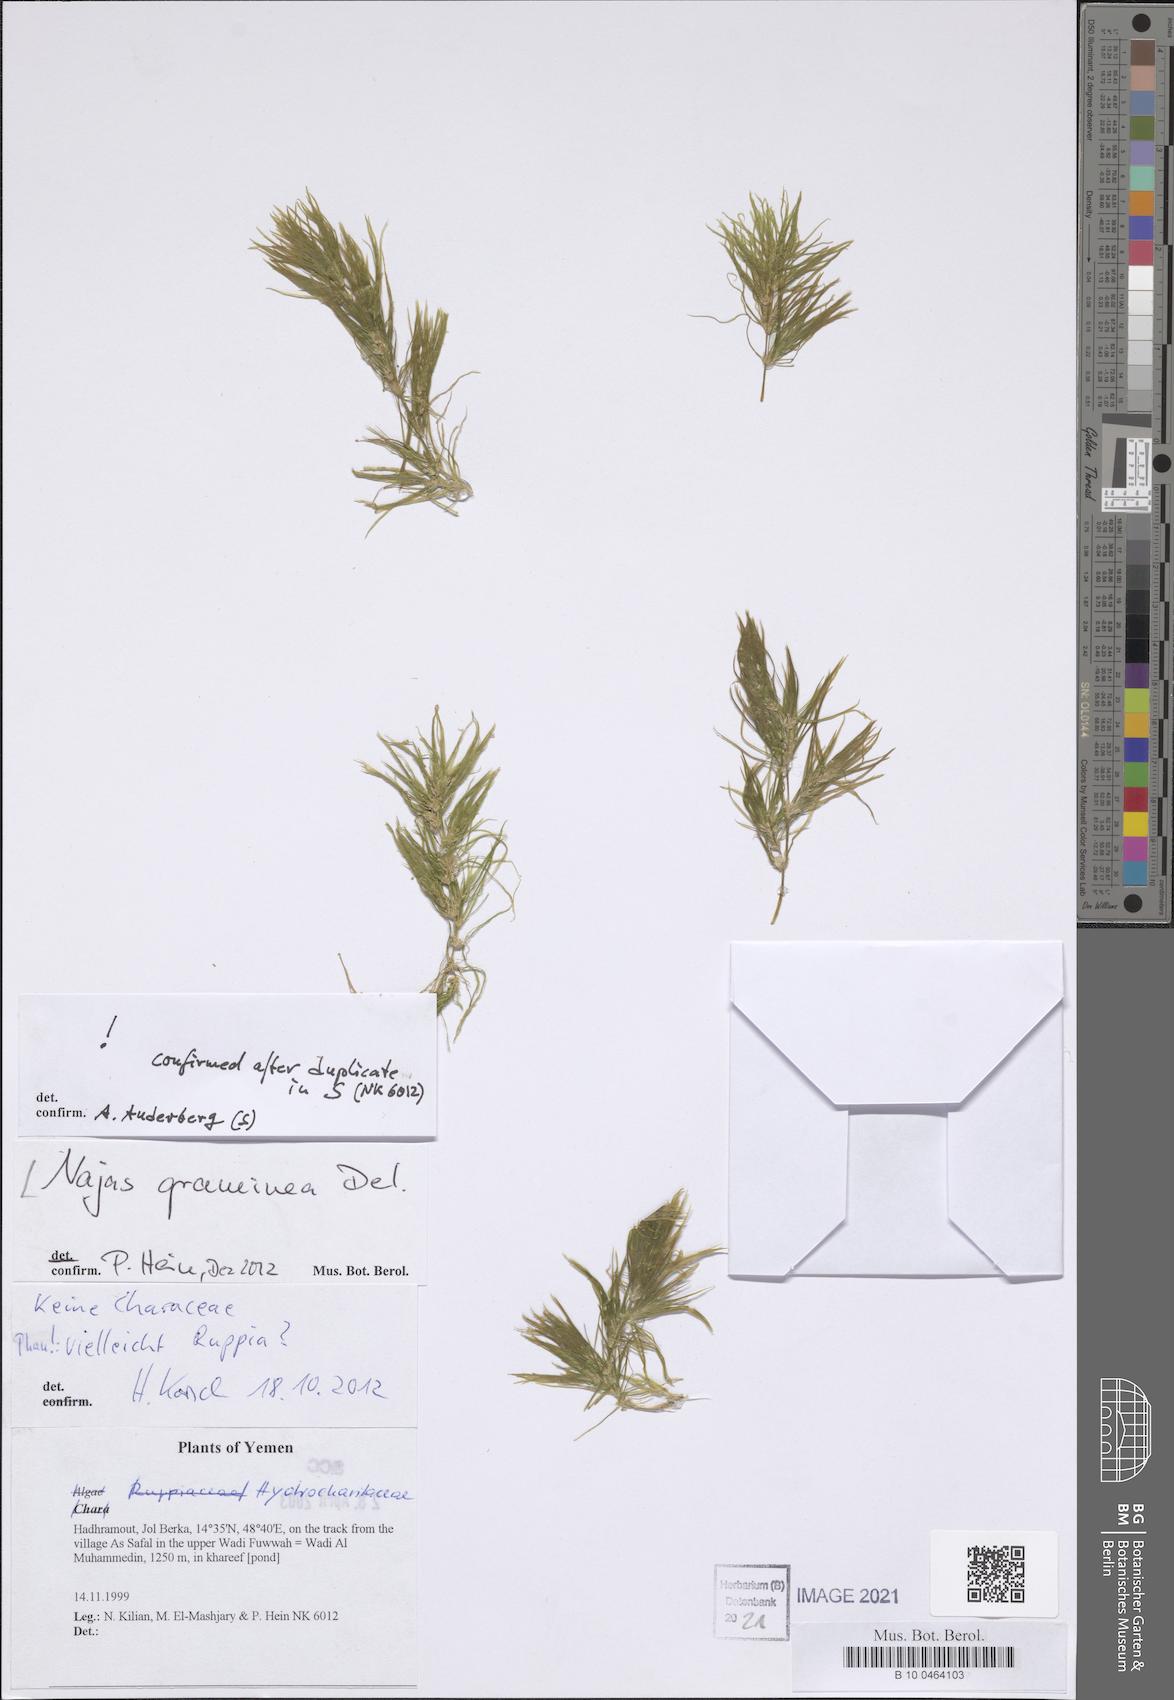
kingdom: Plantae
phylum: Tracheophyta
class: Liliopsida
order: Alismatales
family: Hydrocharitaceae
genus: Najas
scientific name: Najas graminea
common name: Ricefield waternymph
